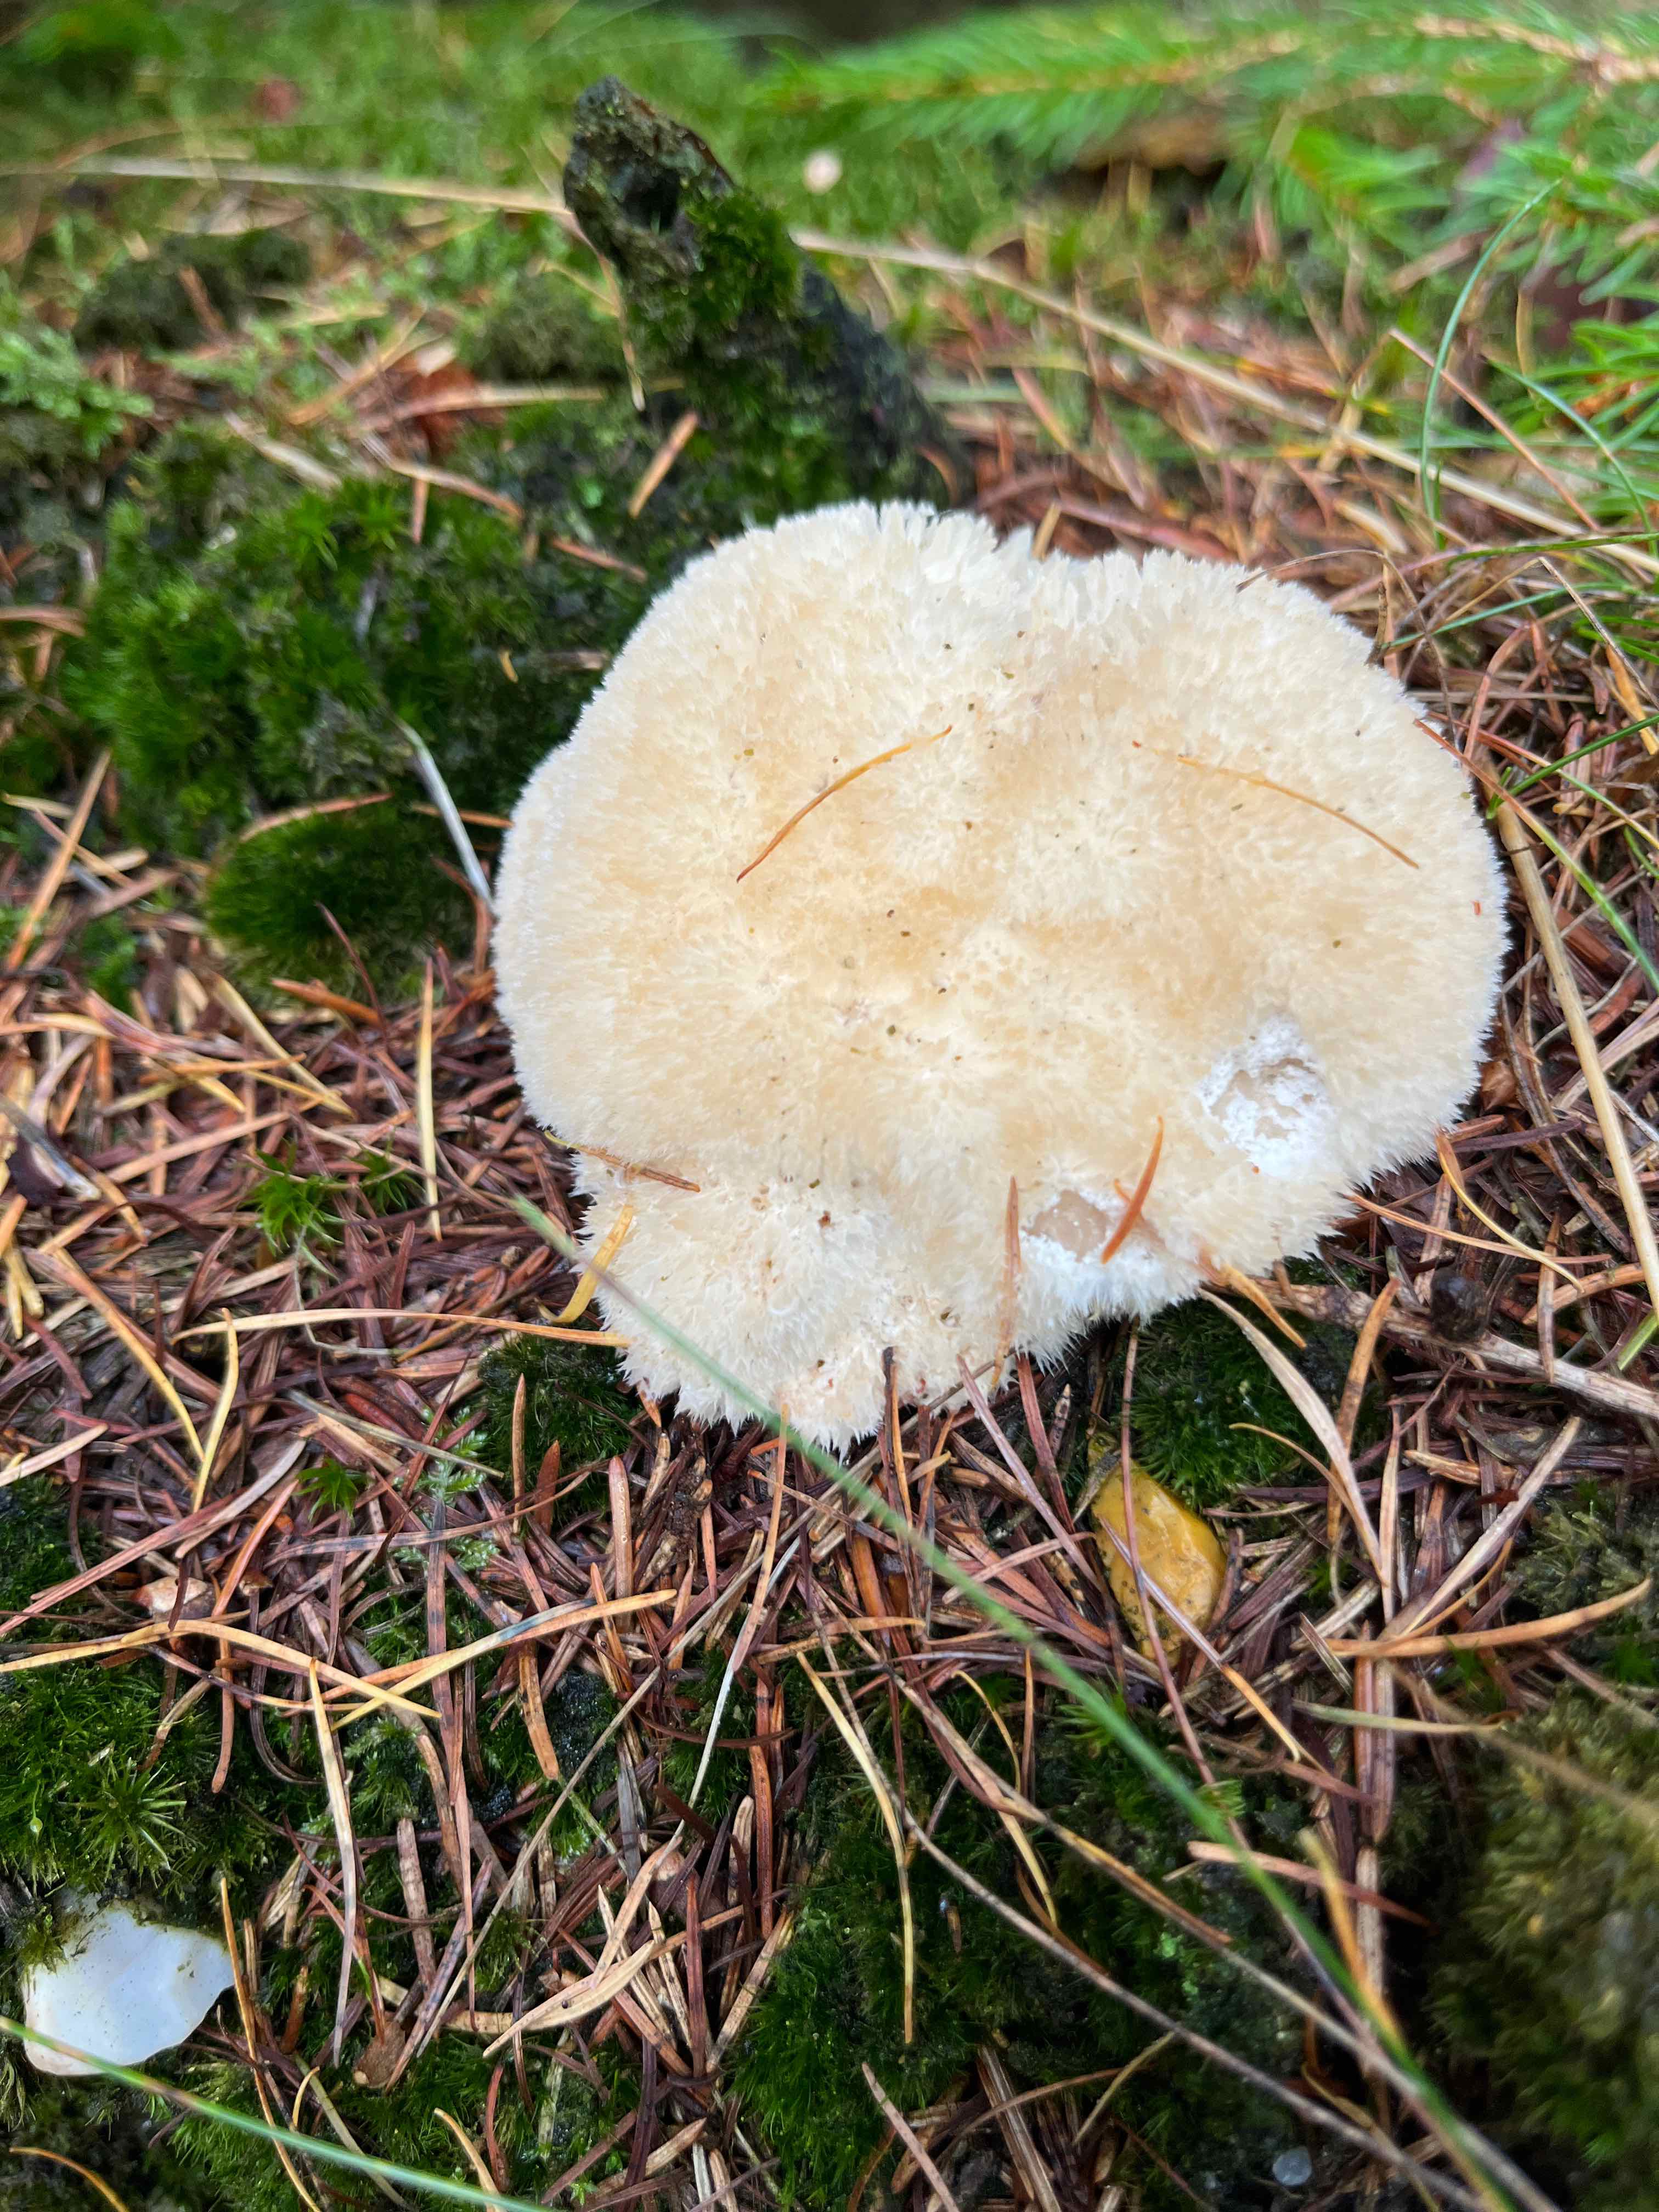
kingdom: Fungi
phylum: Basidiomycota
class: Agaricomycetes
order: Polyporales
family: Dacryobolaceae
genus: Postia
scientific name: Postia ptychogaster
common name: støvende kødporesvamp
